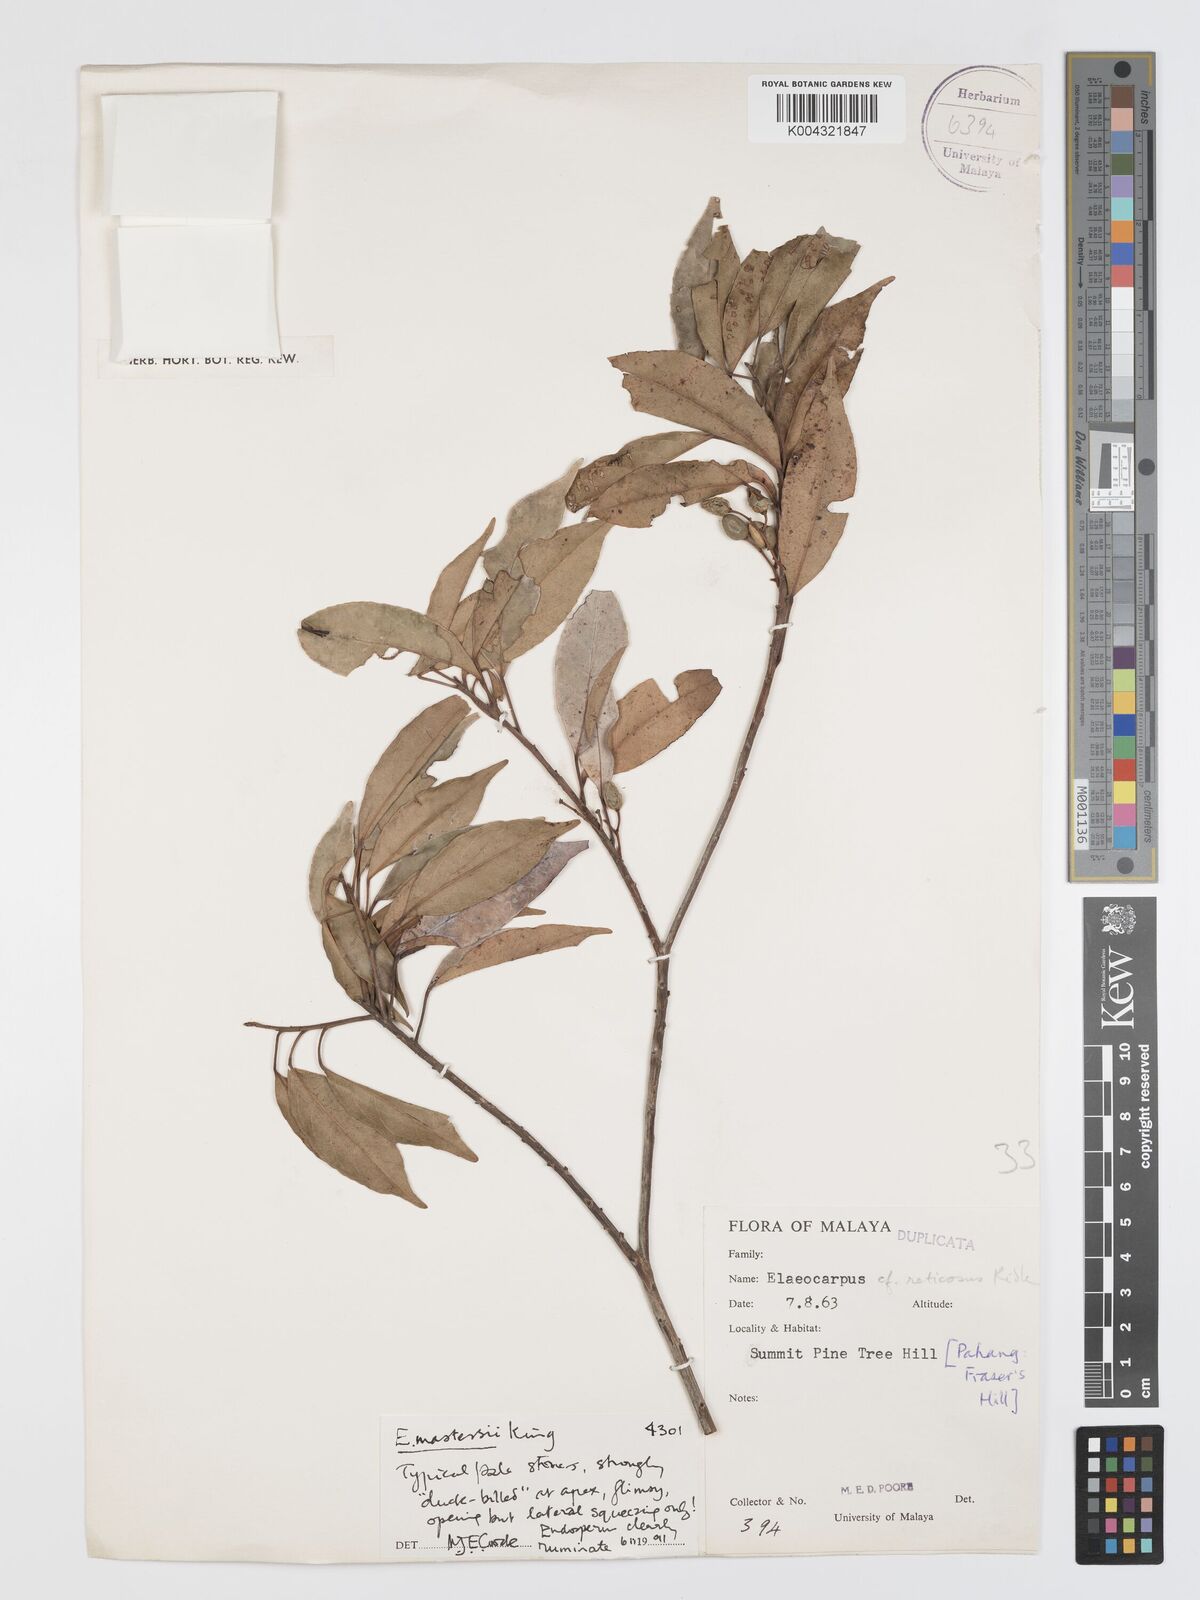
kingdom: Plantae
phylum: Tracheophyta
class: Magnoliopsida
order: Oxalidales
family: Elaeocarpaceae
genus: Elaeocarpus
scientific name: Elaeocarpus mastersii
